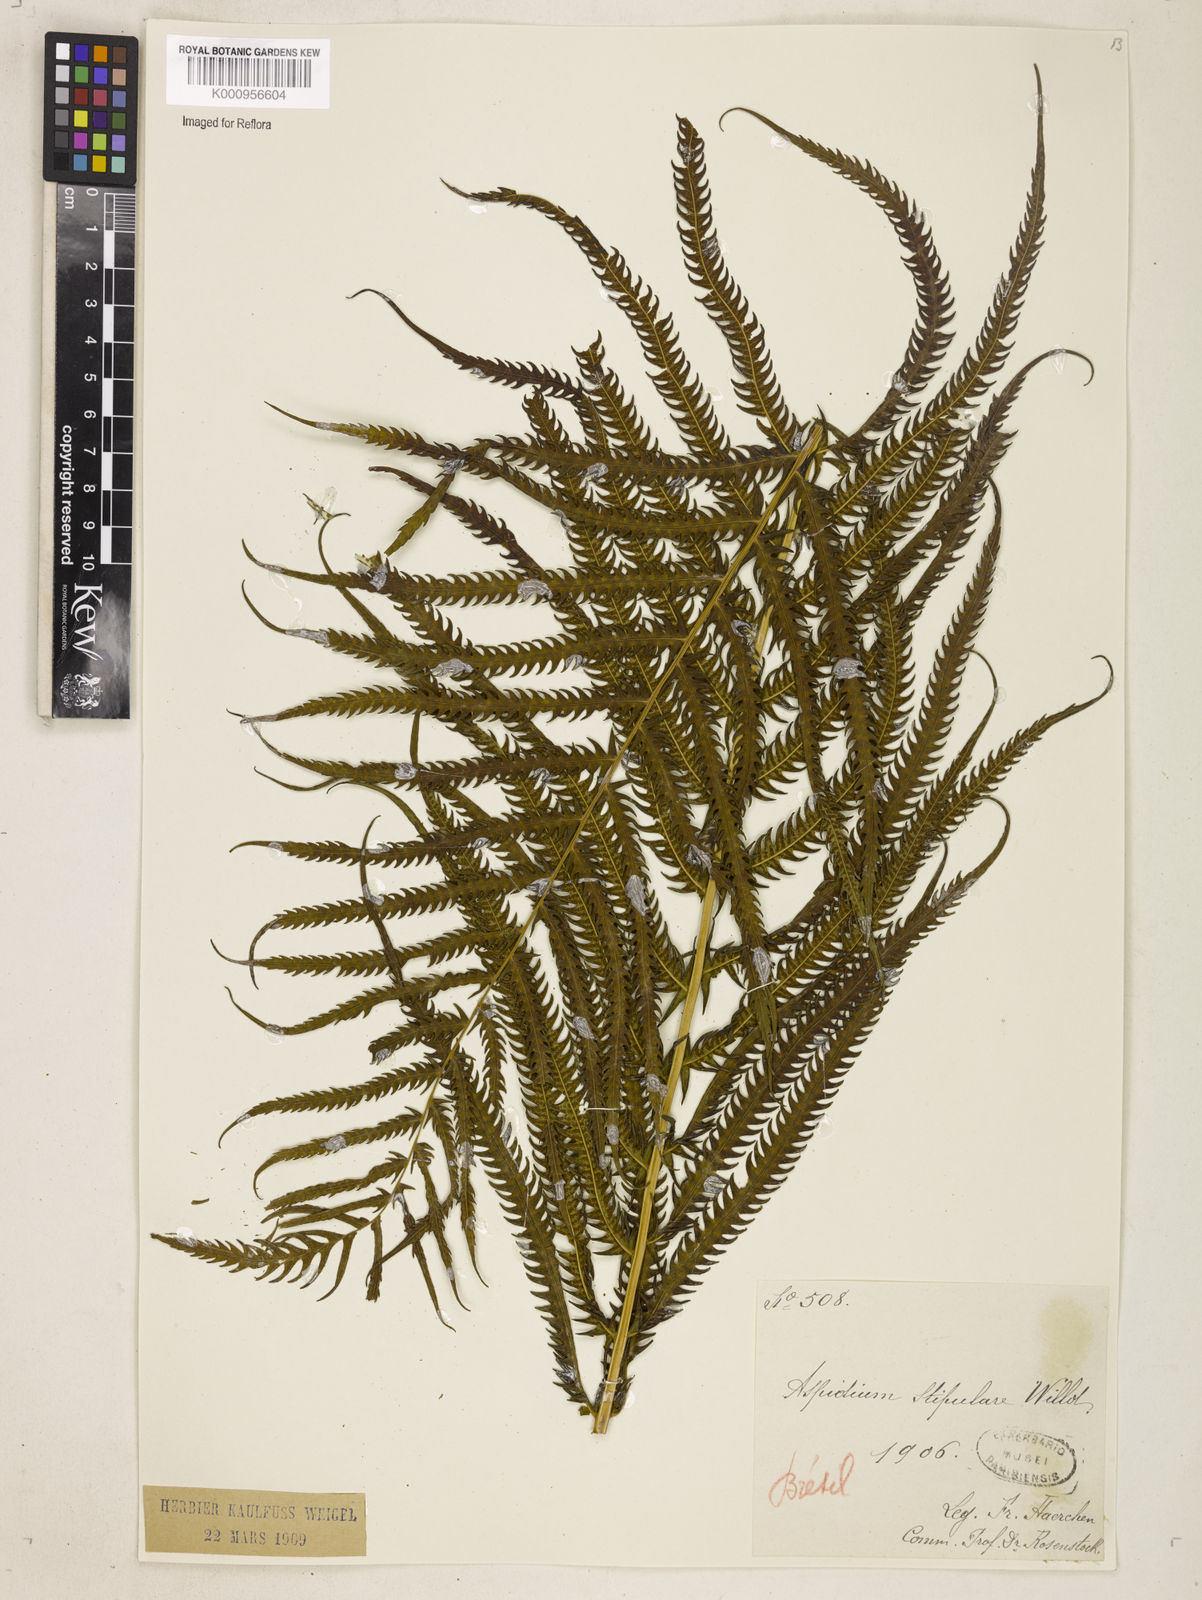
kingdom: Plantae
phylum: Tracheophyta
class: Polypodiopsida
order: Polypodiales
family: Thelypteridaceae
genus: Pelazoneuron
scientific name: Pelazoneuron patens
